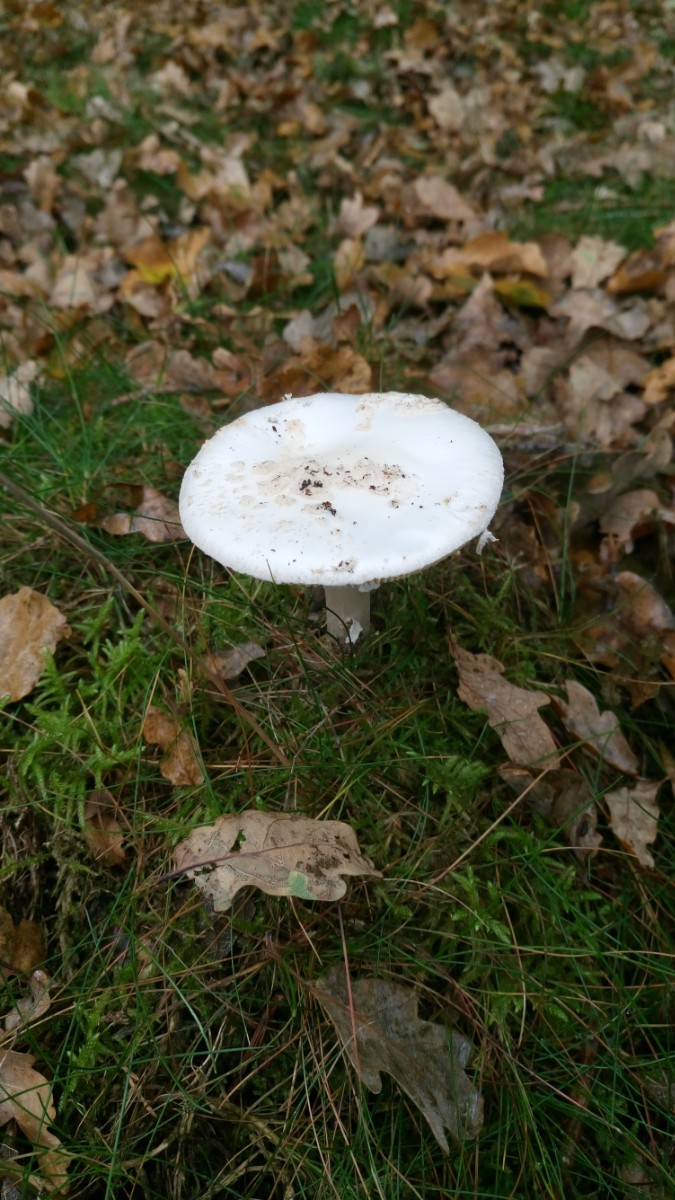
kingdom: Fungi
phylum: Basidiomycota
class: Agaricomycetes
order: Agaricales
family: Amanitaceae
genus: Amanita
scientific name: Amanita citrina
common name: kugleknoldet fluesvamp
